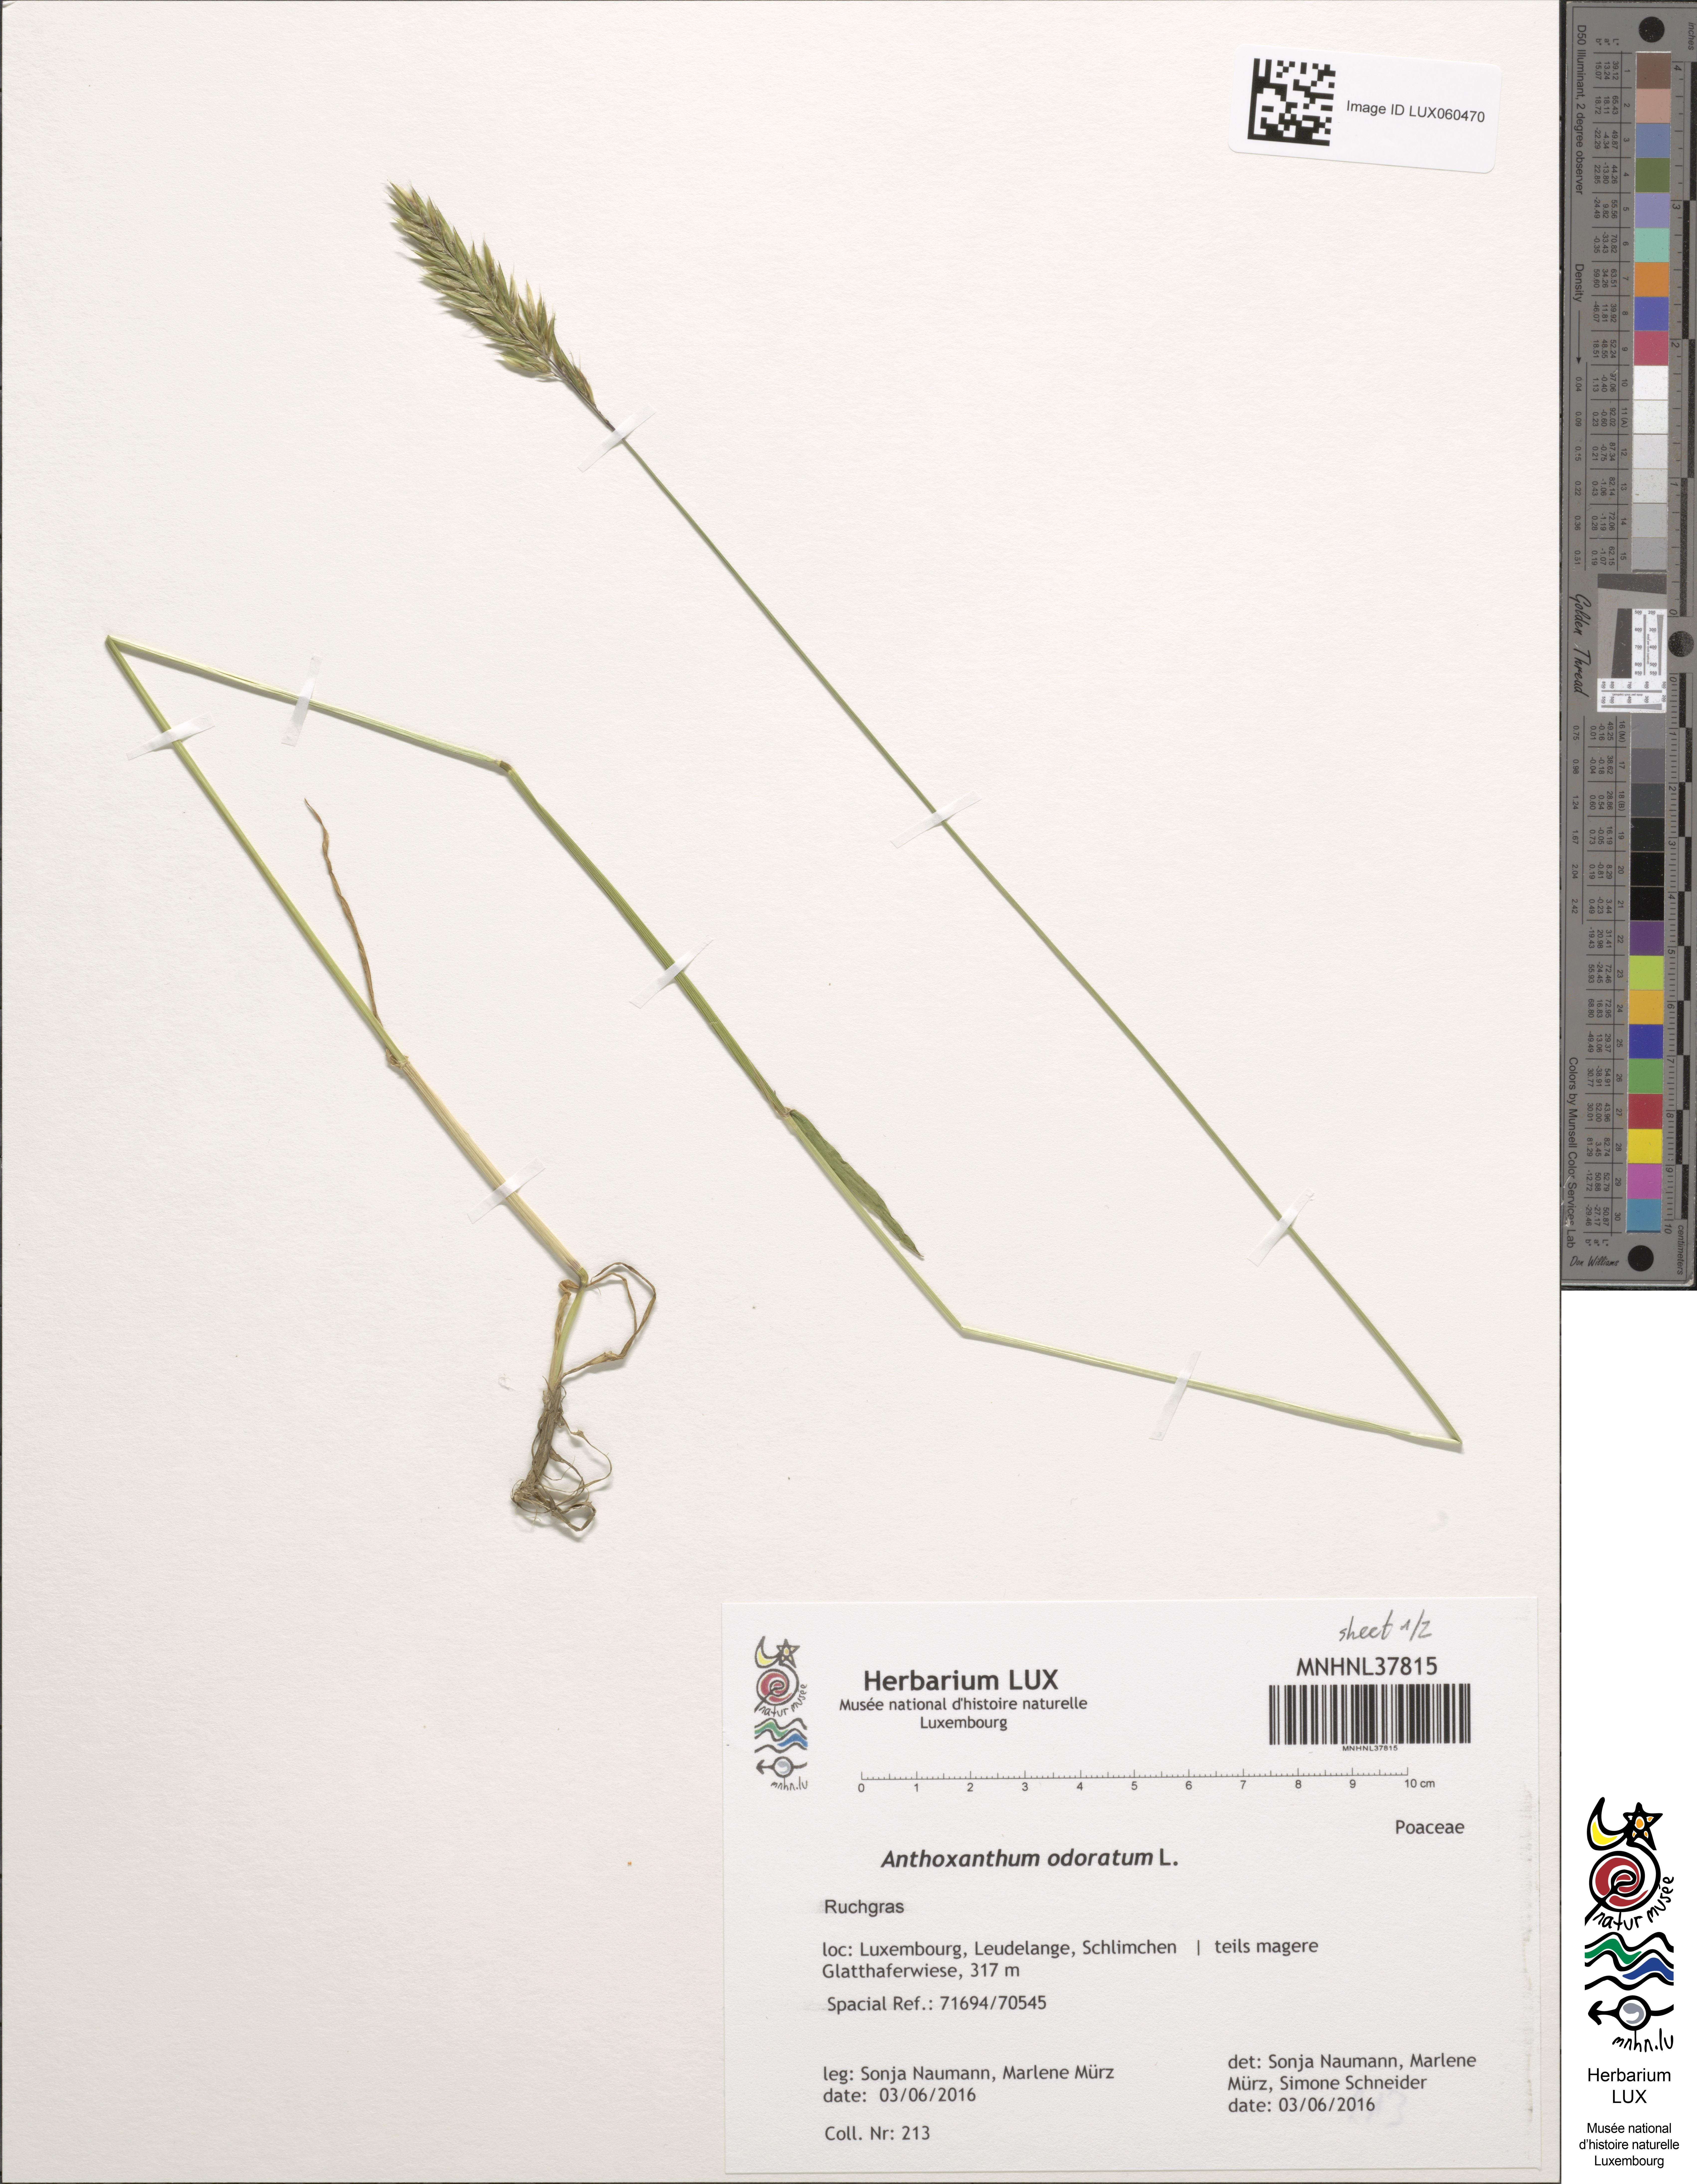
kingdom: Plantae
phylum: Tracheophyta
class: Liliopsida
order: Poales
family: Poaceae
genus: Anthoxanthum
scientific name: Anthoxanthum odoratum
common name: Sweet vernalgrass
